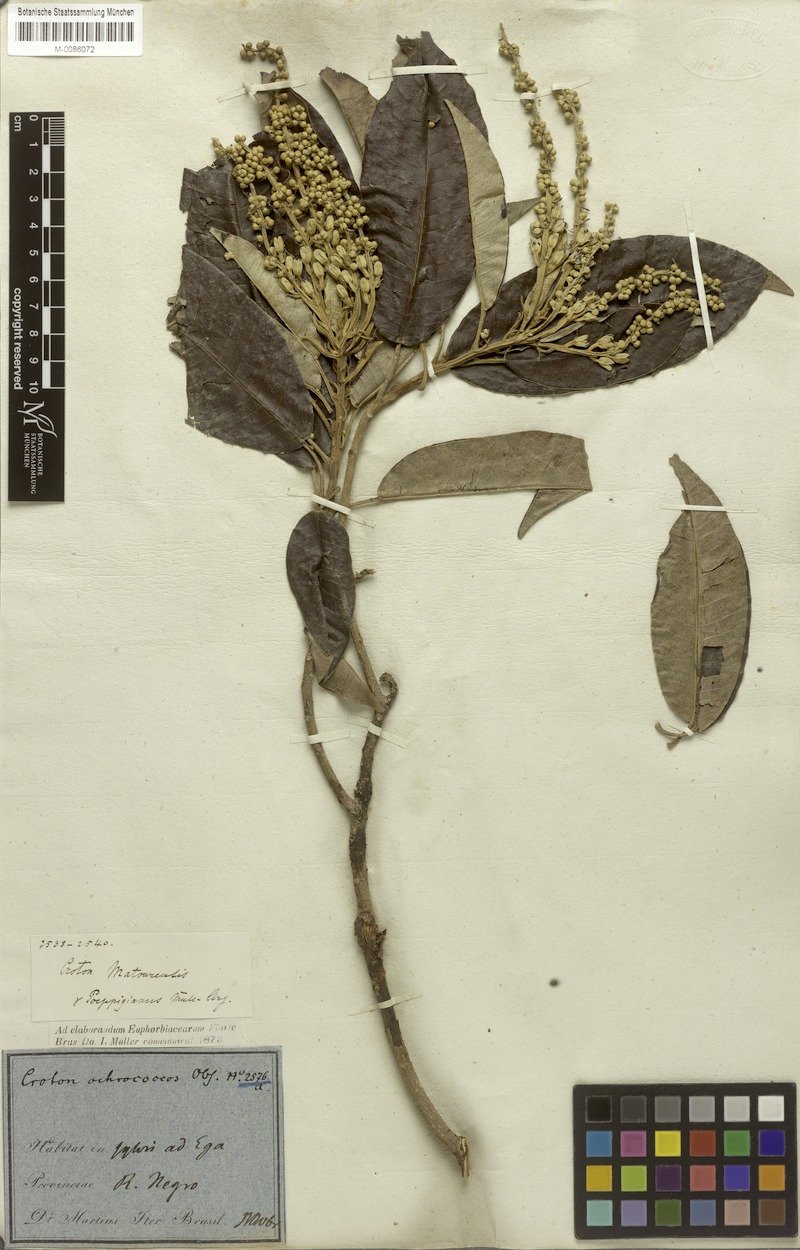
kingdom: Plantae
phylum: Tracheophyta
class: Magnoliopsida
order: Malpighiales
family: Euphorbiaceae
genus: Croton
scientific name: Croton matourensis
